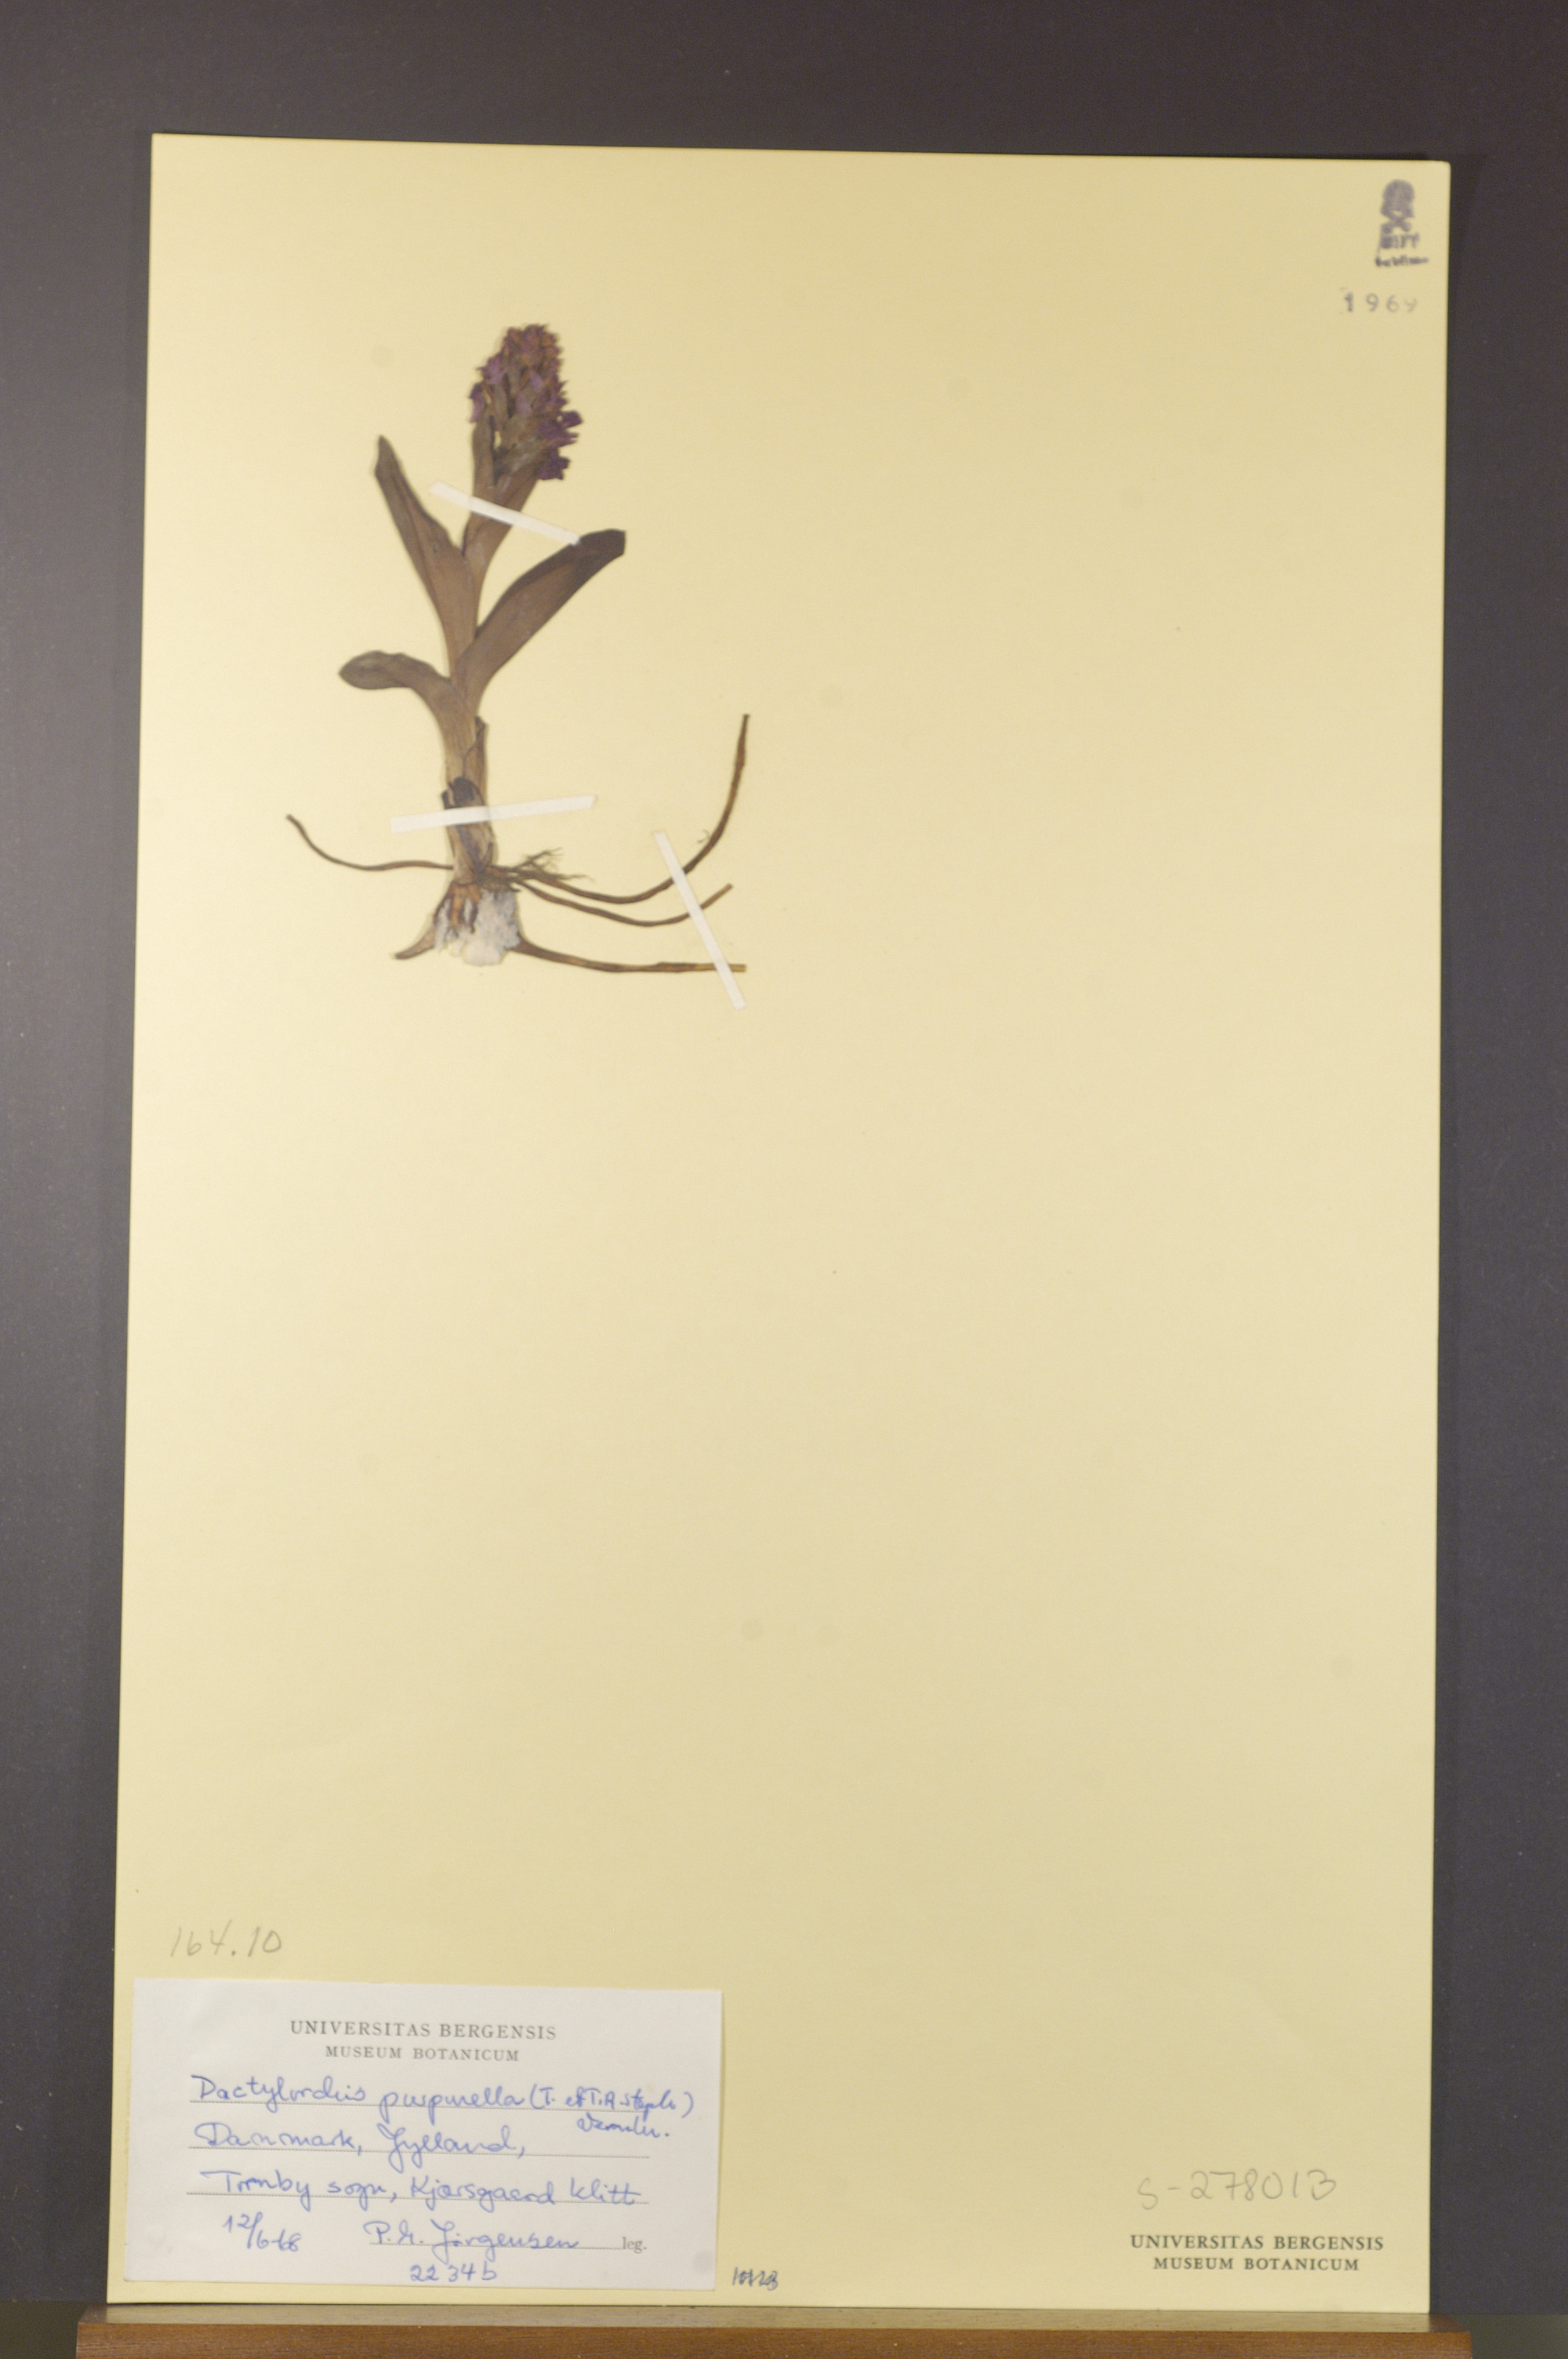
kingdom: Plantae
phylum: Tracheophyta
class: Liliopsida
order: Asparagales
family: Orchidaceae
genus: Dactylorhiza
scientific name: Dactylorhiza majalis
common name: Marsh orchid
